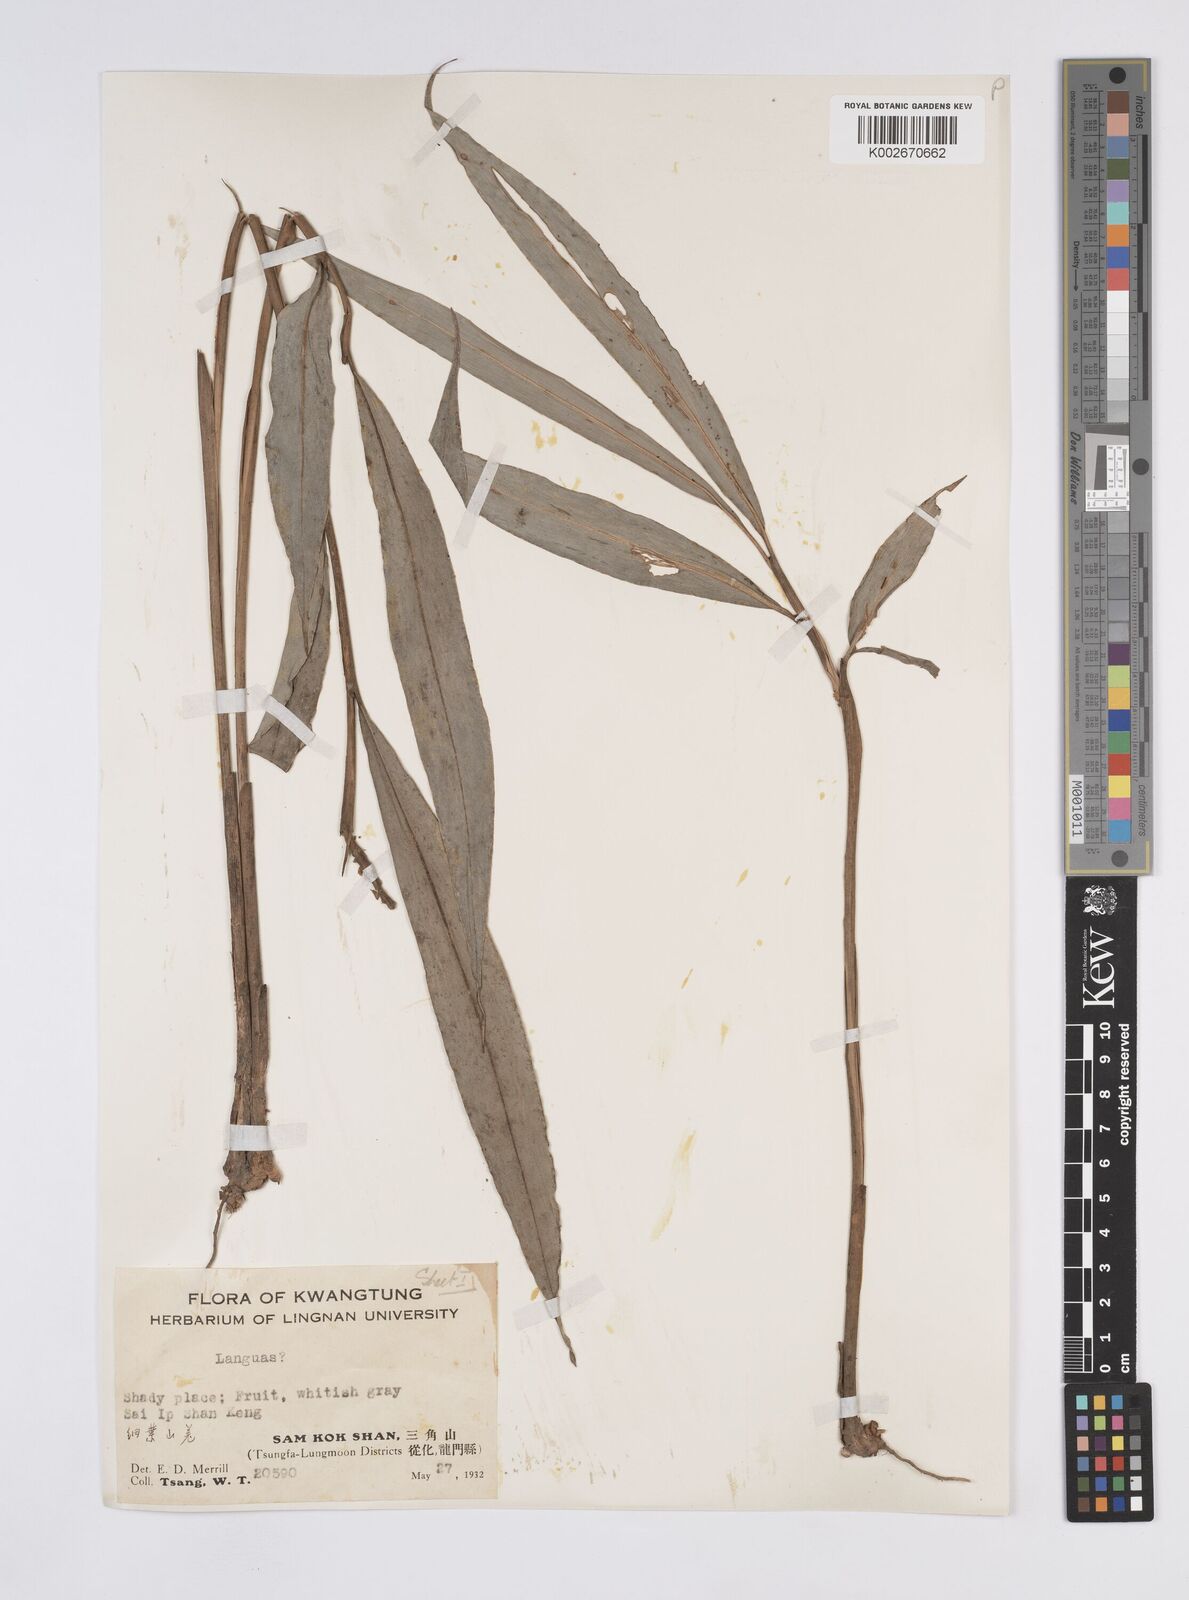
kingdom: Plantae
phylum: Tracheophyta
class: Liliopsida
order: Zingiberales
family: Zingiberaceae
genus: Alpinia
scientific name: Alpinia
